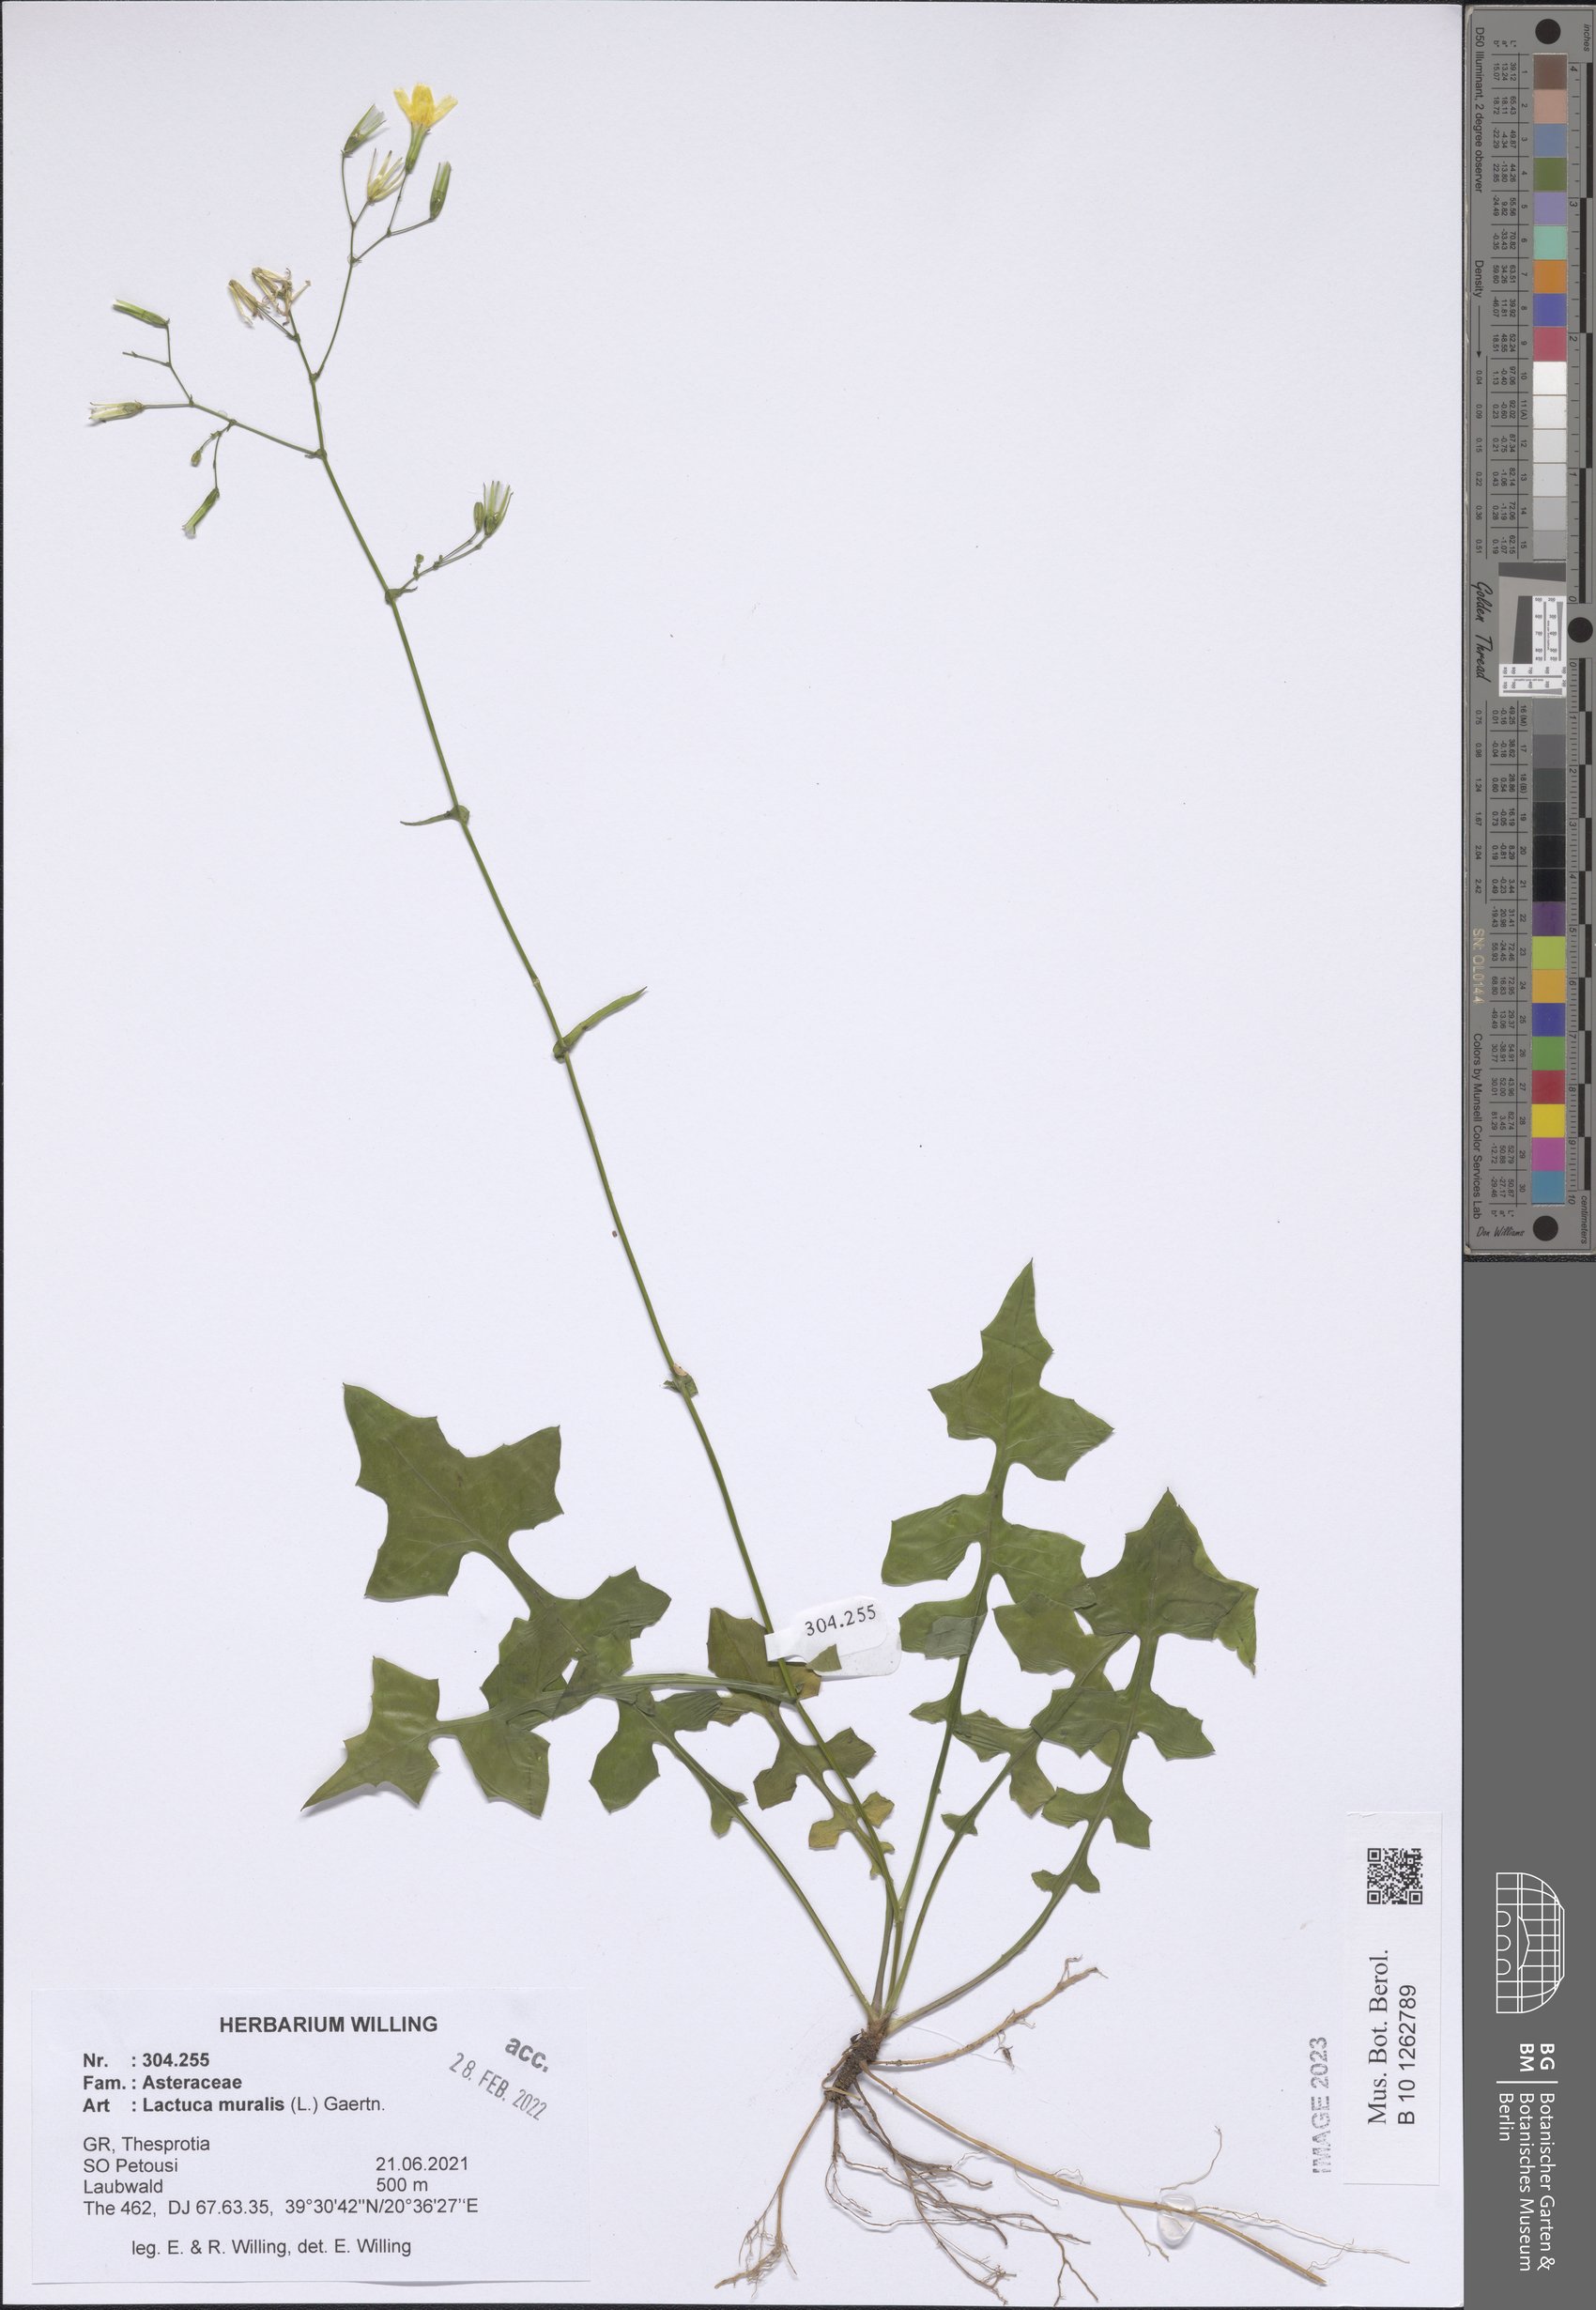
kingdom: Plantae
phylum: Tracheophyta
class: Magnoliopsida
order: Asterales
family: Asteraceae
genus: Mycelis
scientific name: Mycelis muralis
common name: Wall lettuce
